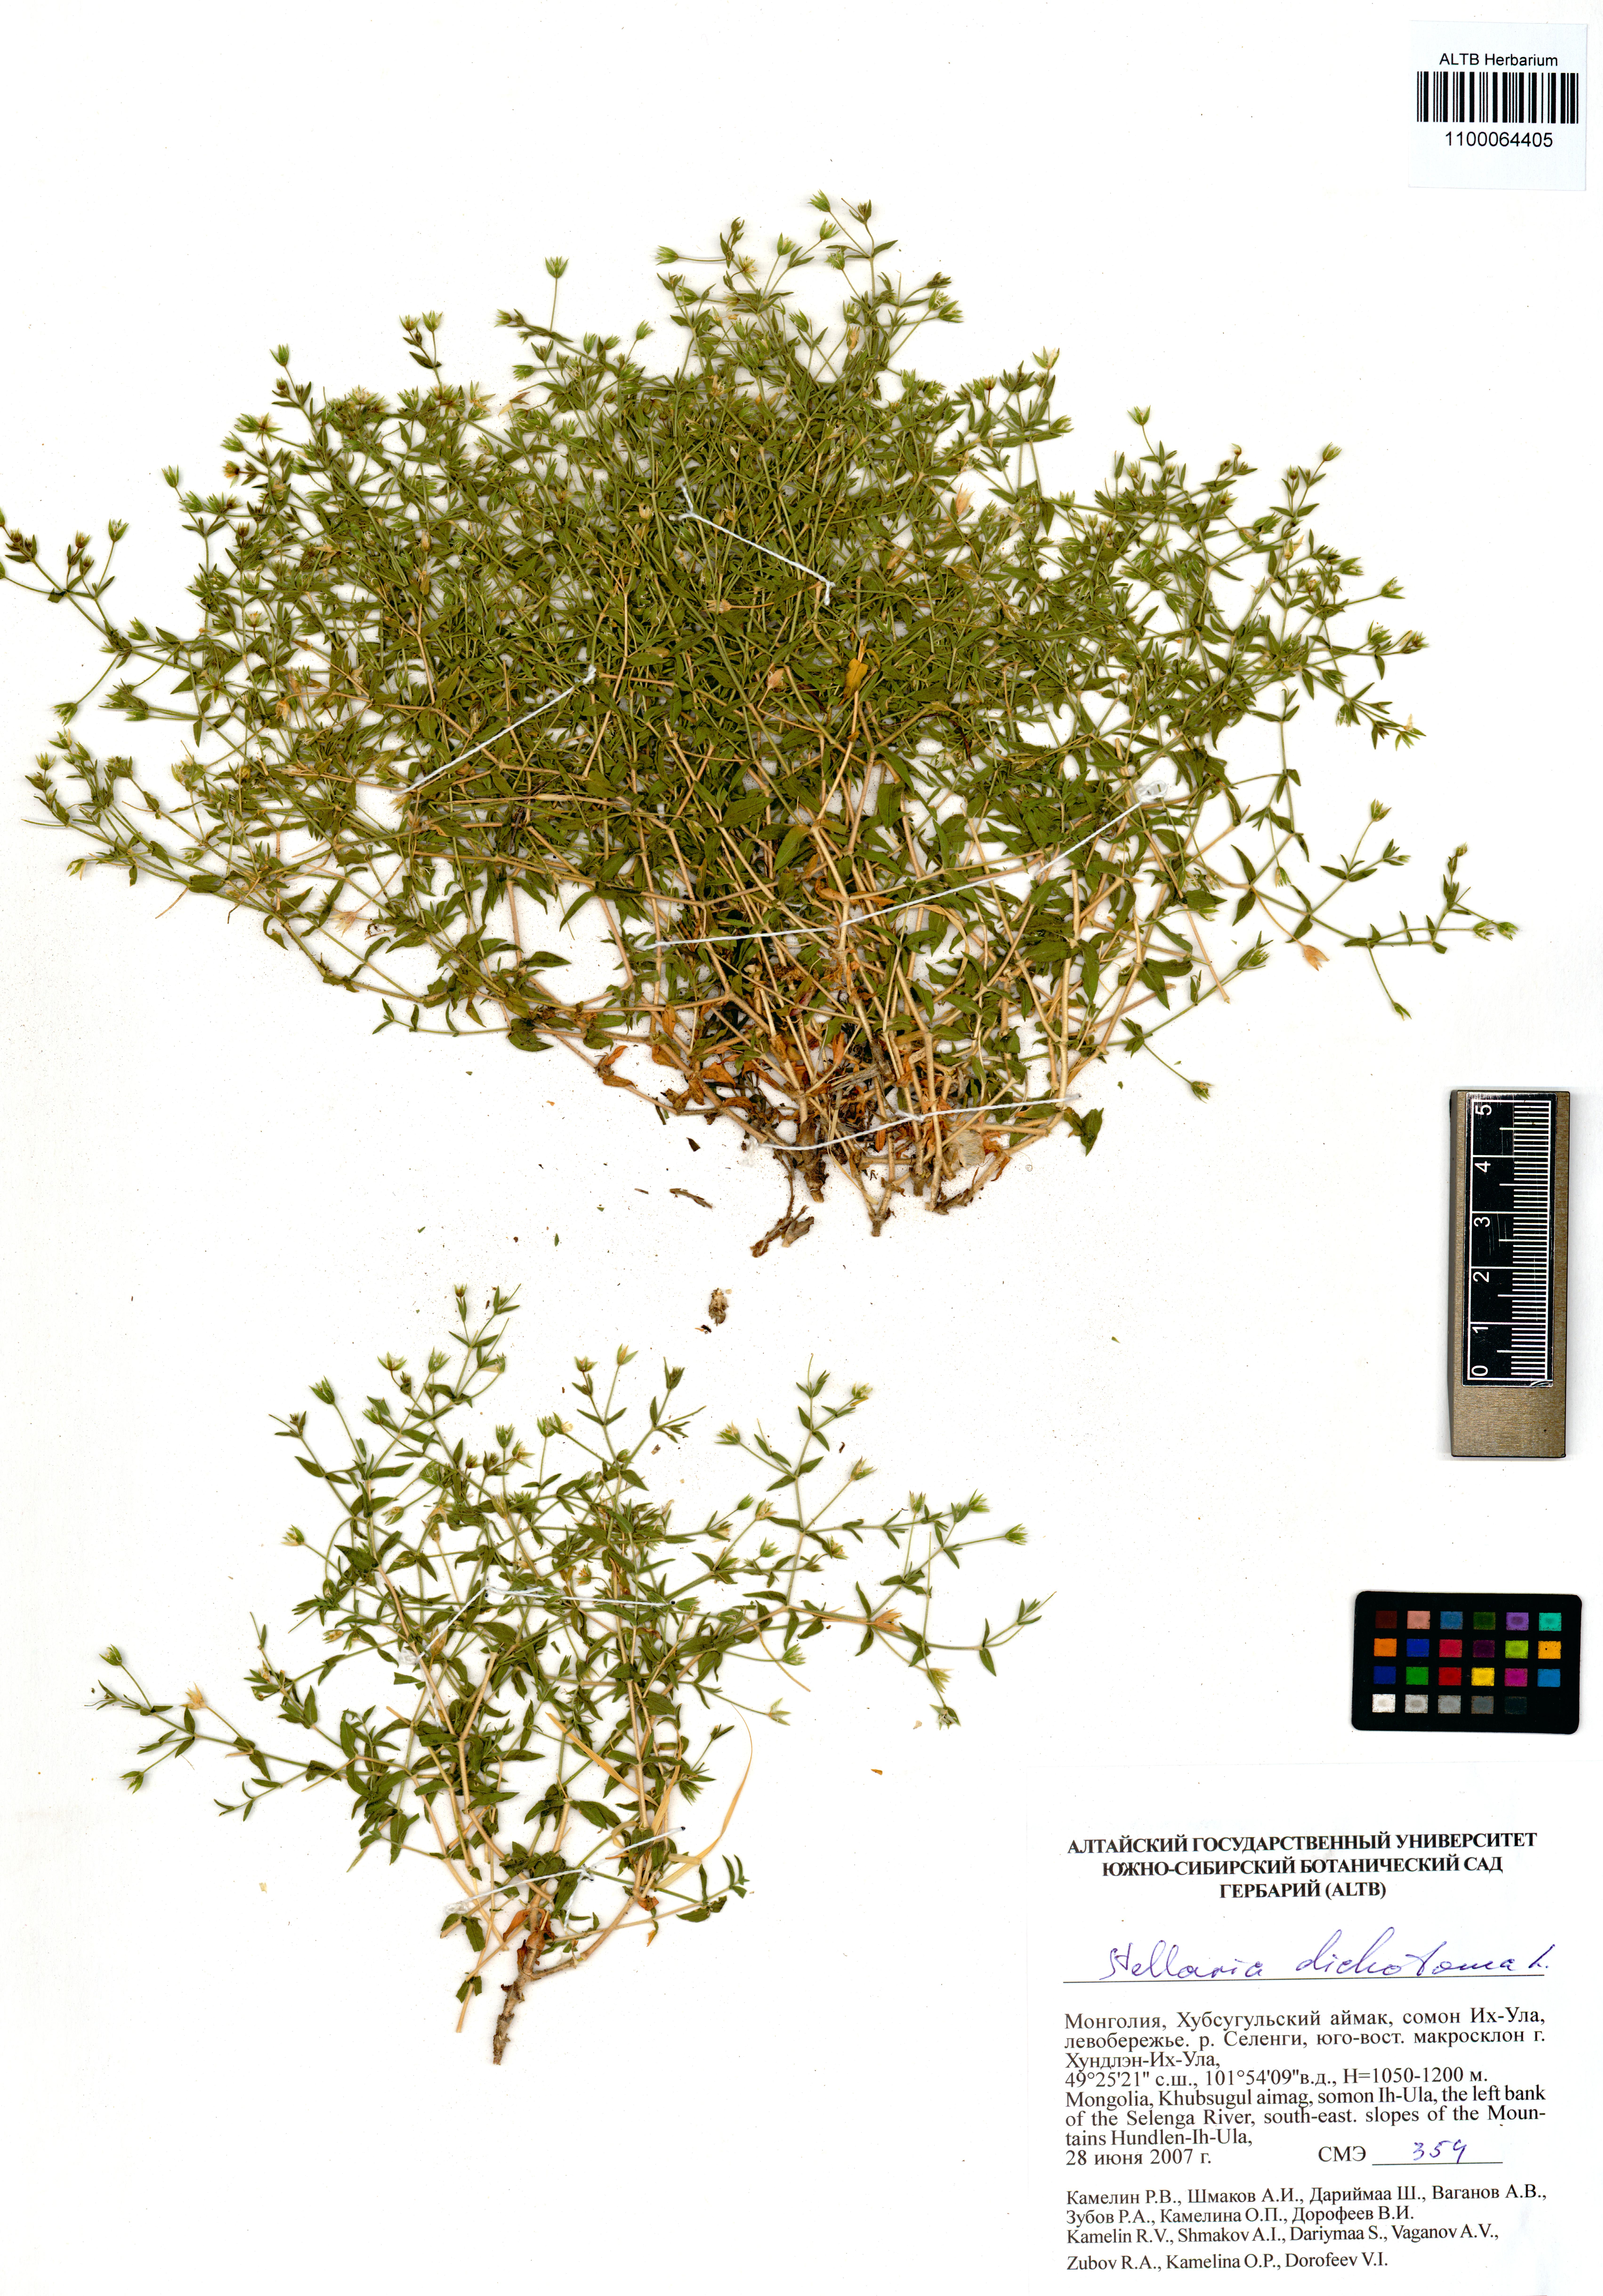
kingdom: Plantae
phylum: Tracheophyta
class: Magnoliopsida
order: Caryophyllales
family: Caryophyllaceae
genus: Mesostemma
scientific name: Mesostemma dichotomum
